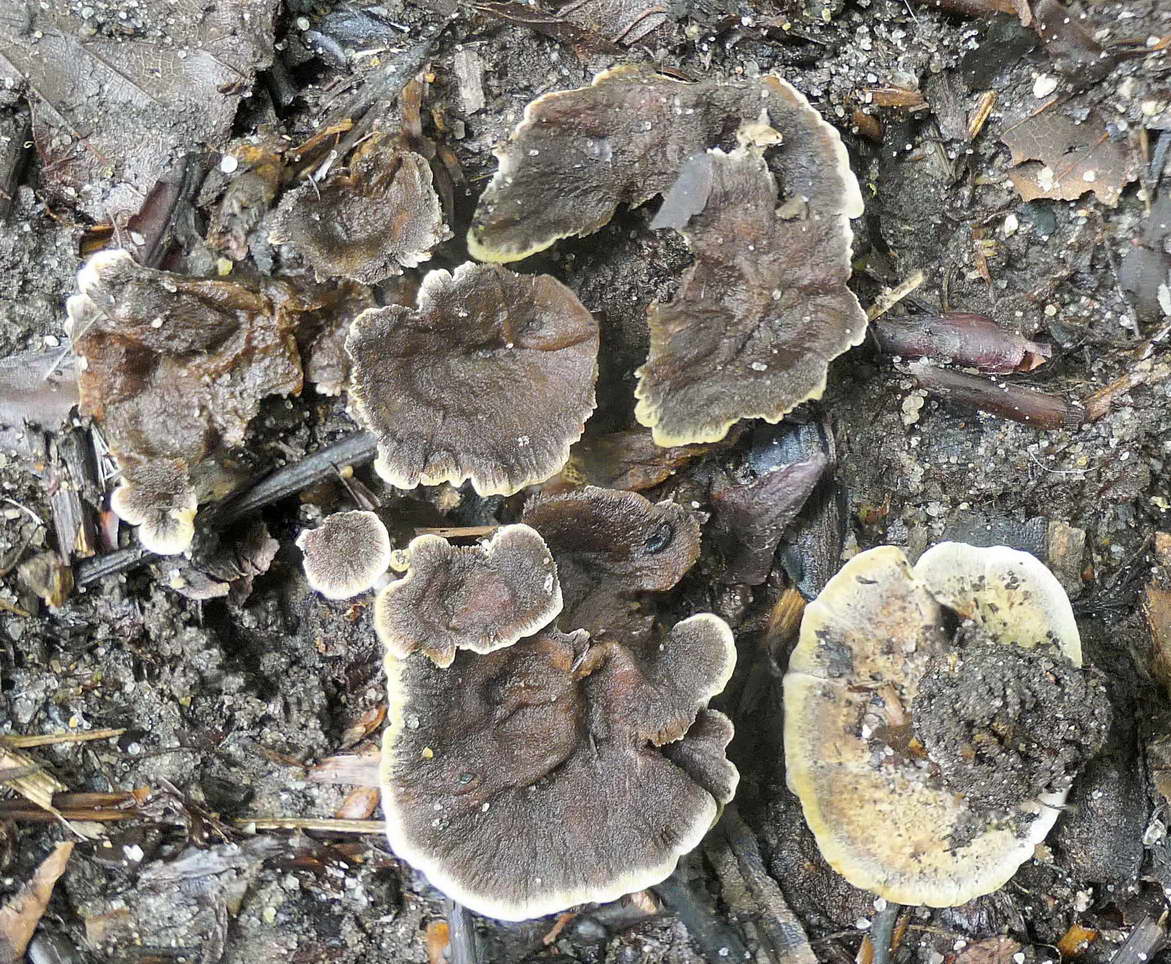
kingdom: Fungi
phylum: Basidiomycota
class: Agaricomycetes
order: Hymenochaetales
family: Hymenochaetaceae
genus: Coltricia
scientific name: Coltricia confluens
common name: park-sandporesvamp
